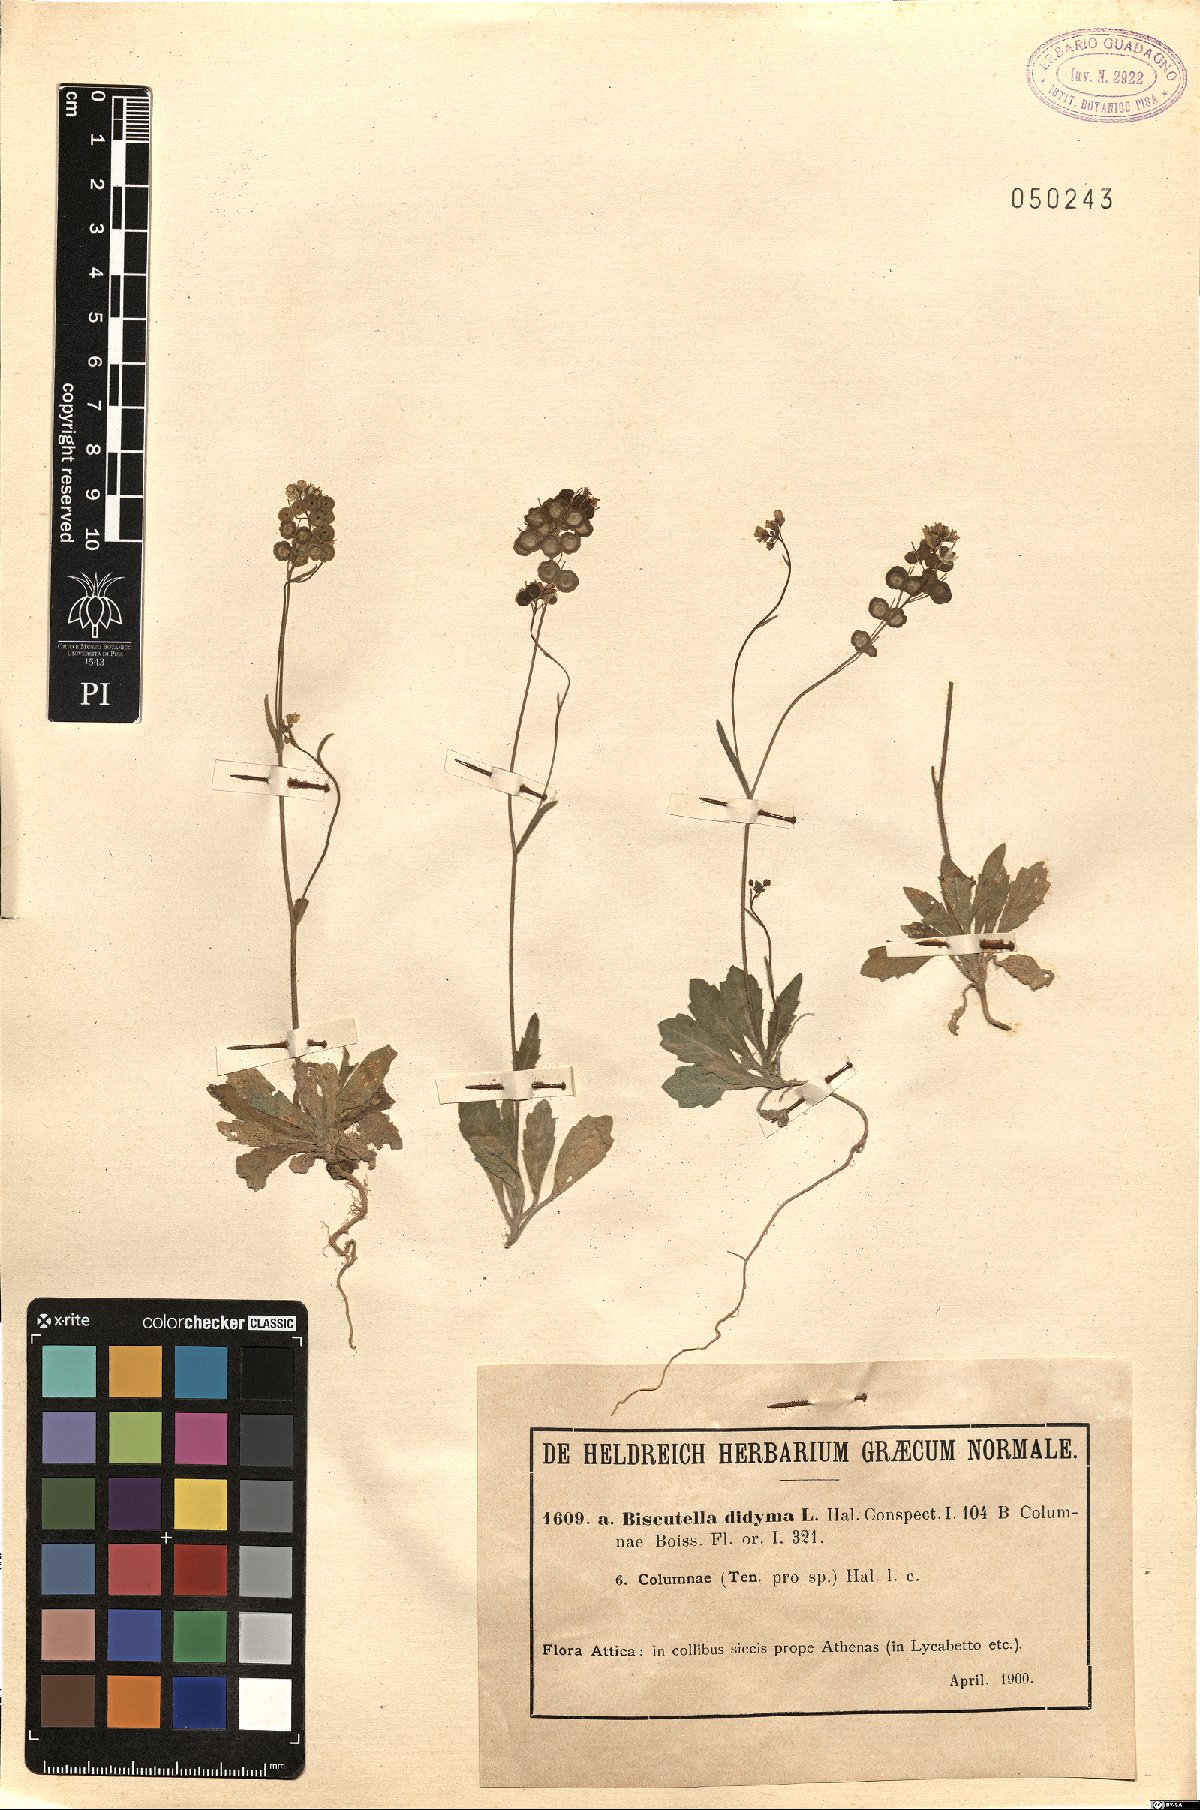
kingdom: Plantae
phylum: Tracheophyta
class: Magnoliopsida
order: Brassicales
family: Brassicaceae
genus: Biscutella
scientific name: Biscutella didyma
